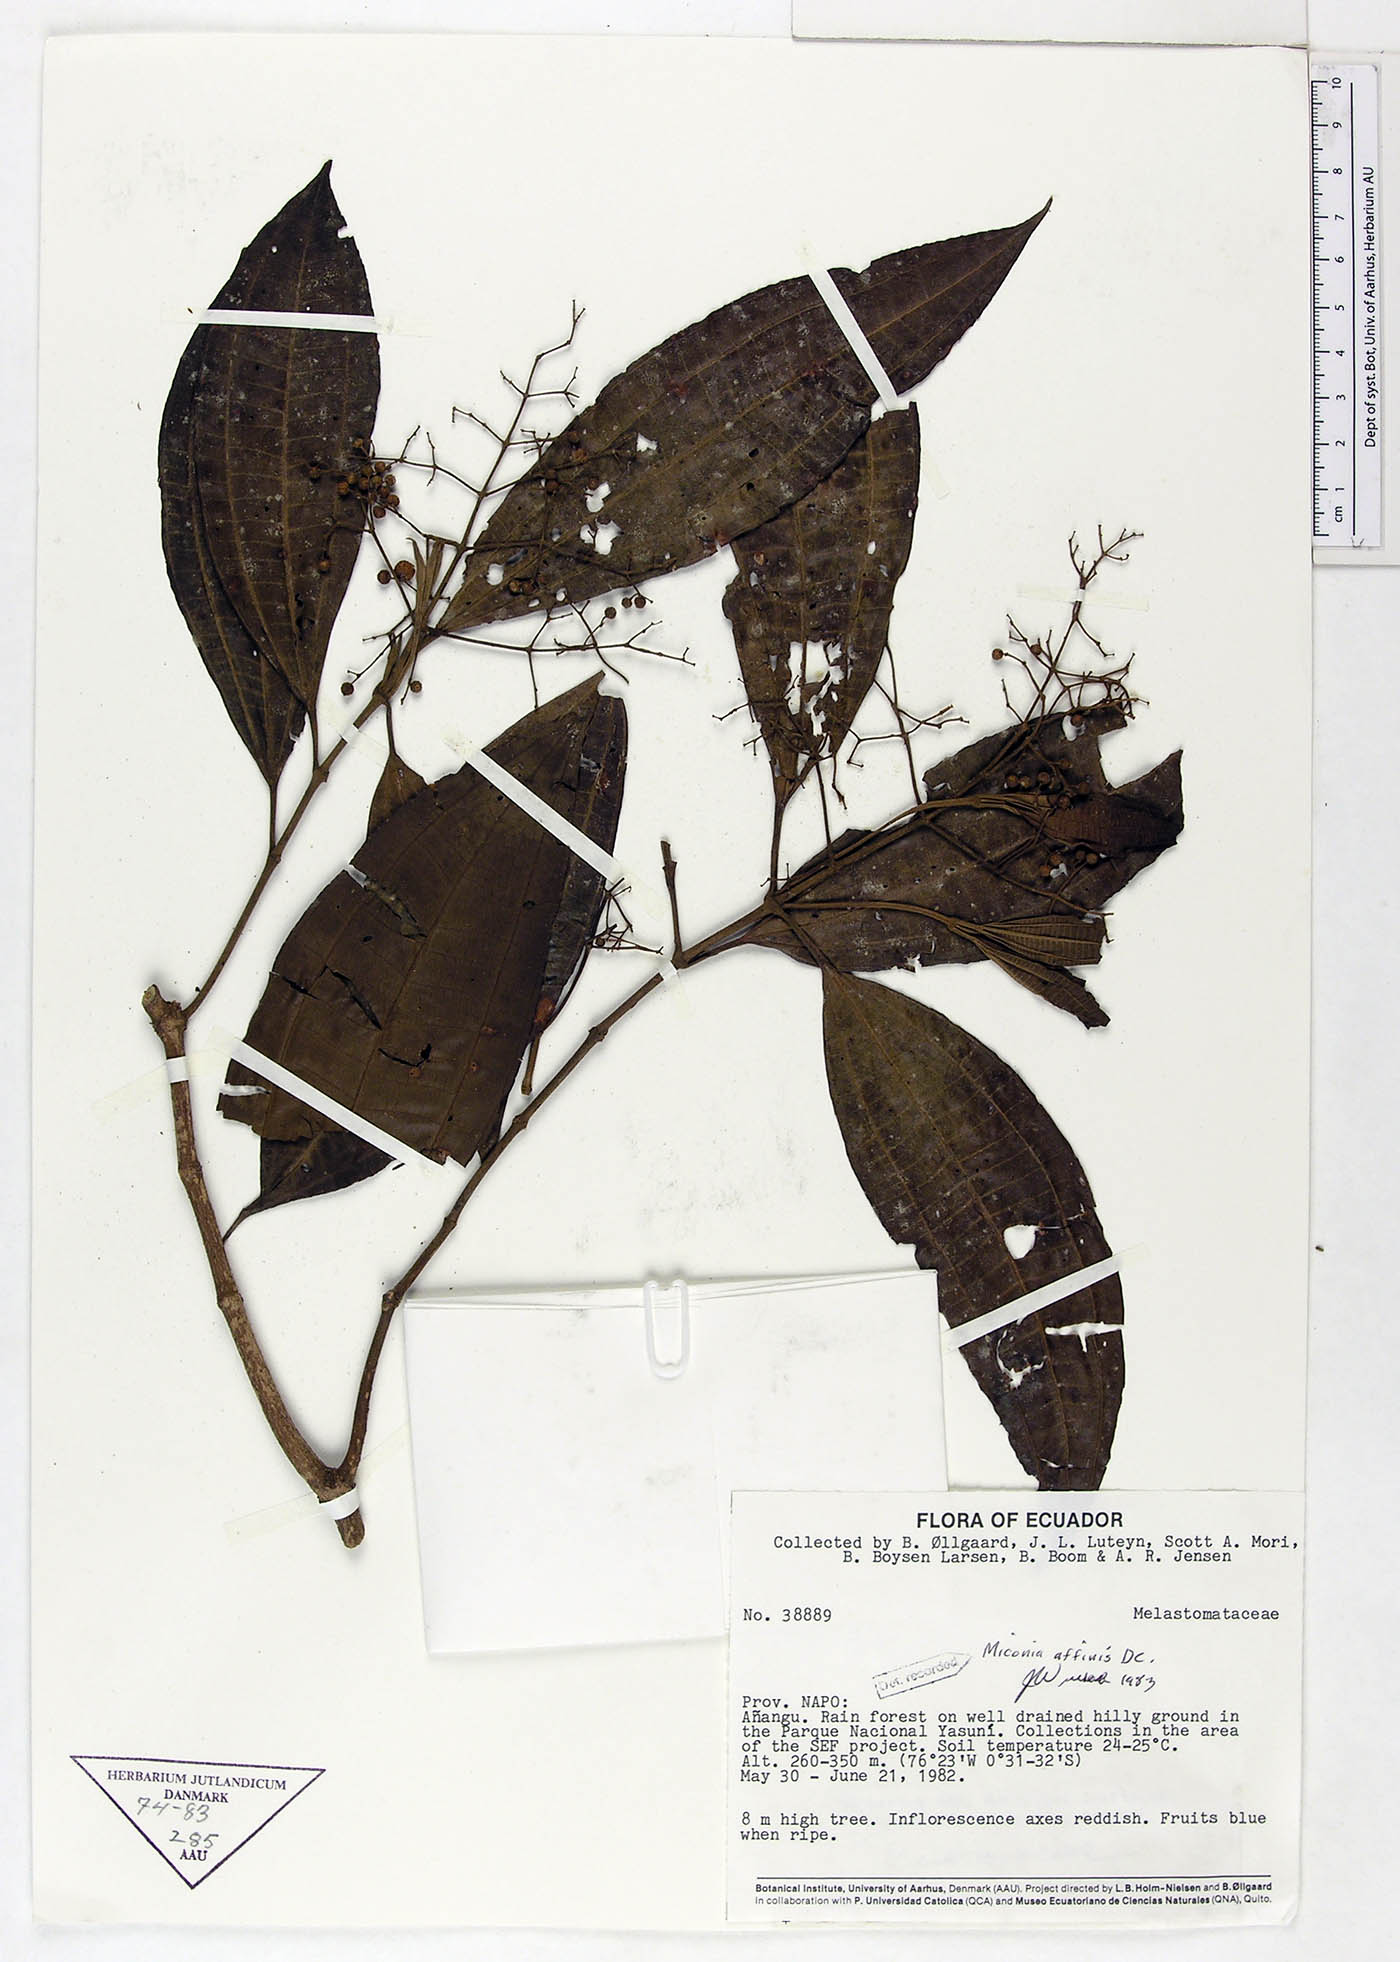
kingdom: Plantae
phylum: Tracheophyta
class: Magnoliopsida
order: Myrtales
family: Melastomataceae
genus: Miconia
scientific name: Miconia affinis
